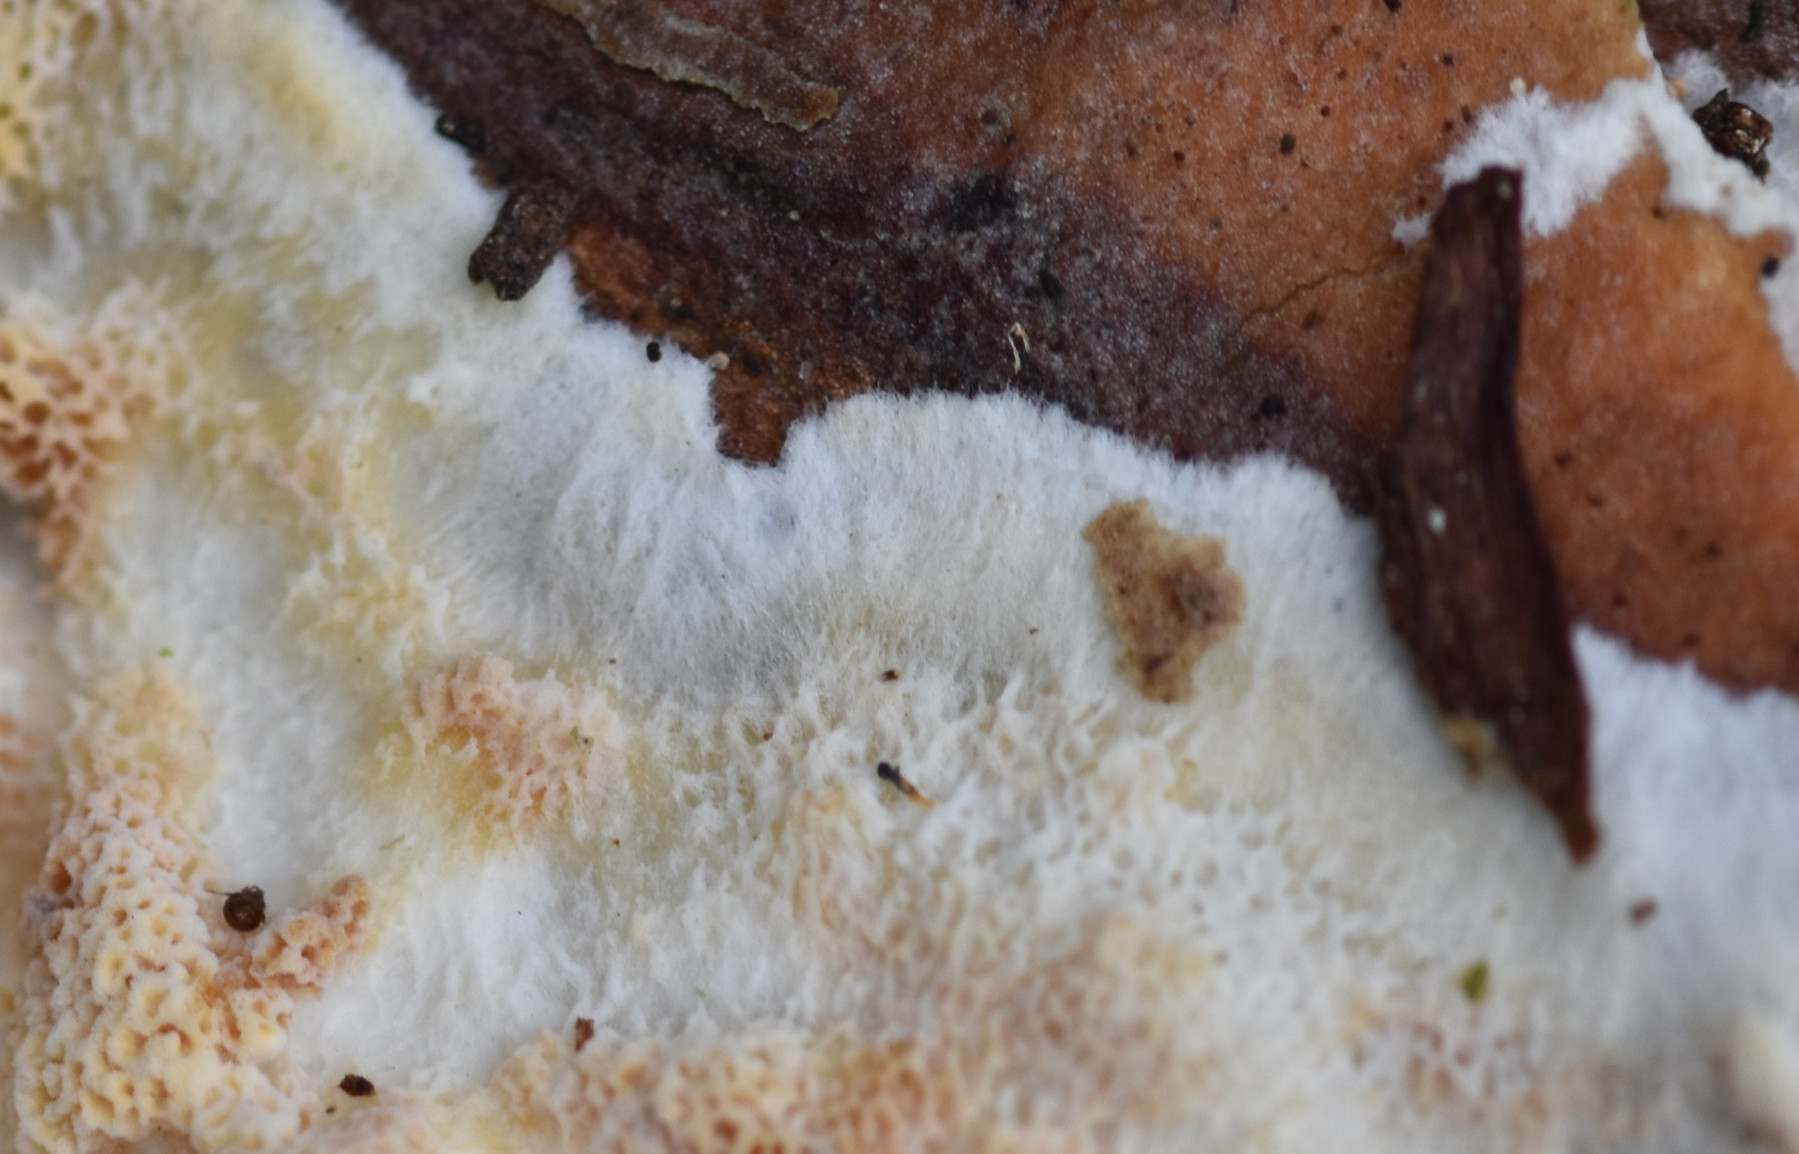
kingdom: Fungi
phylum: Basidiomycota
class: Agaricomycetes
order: Corticiales
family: Corticiaceae
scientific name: Corticiaceae
